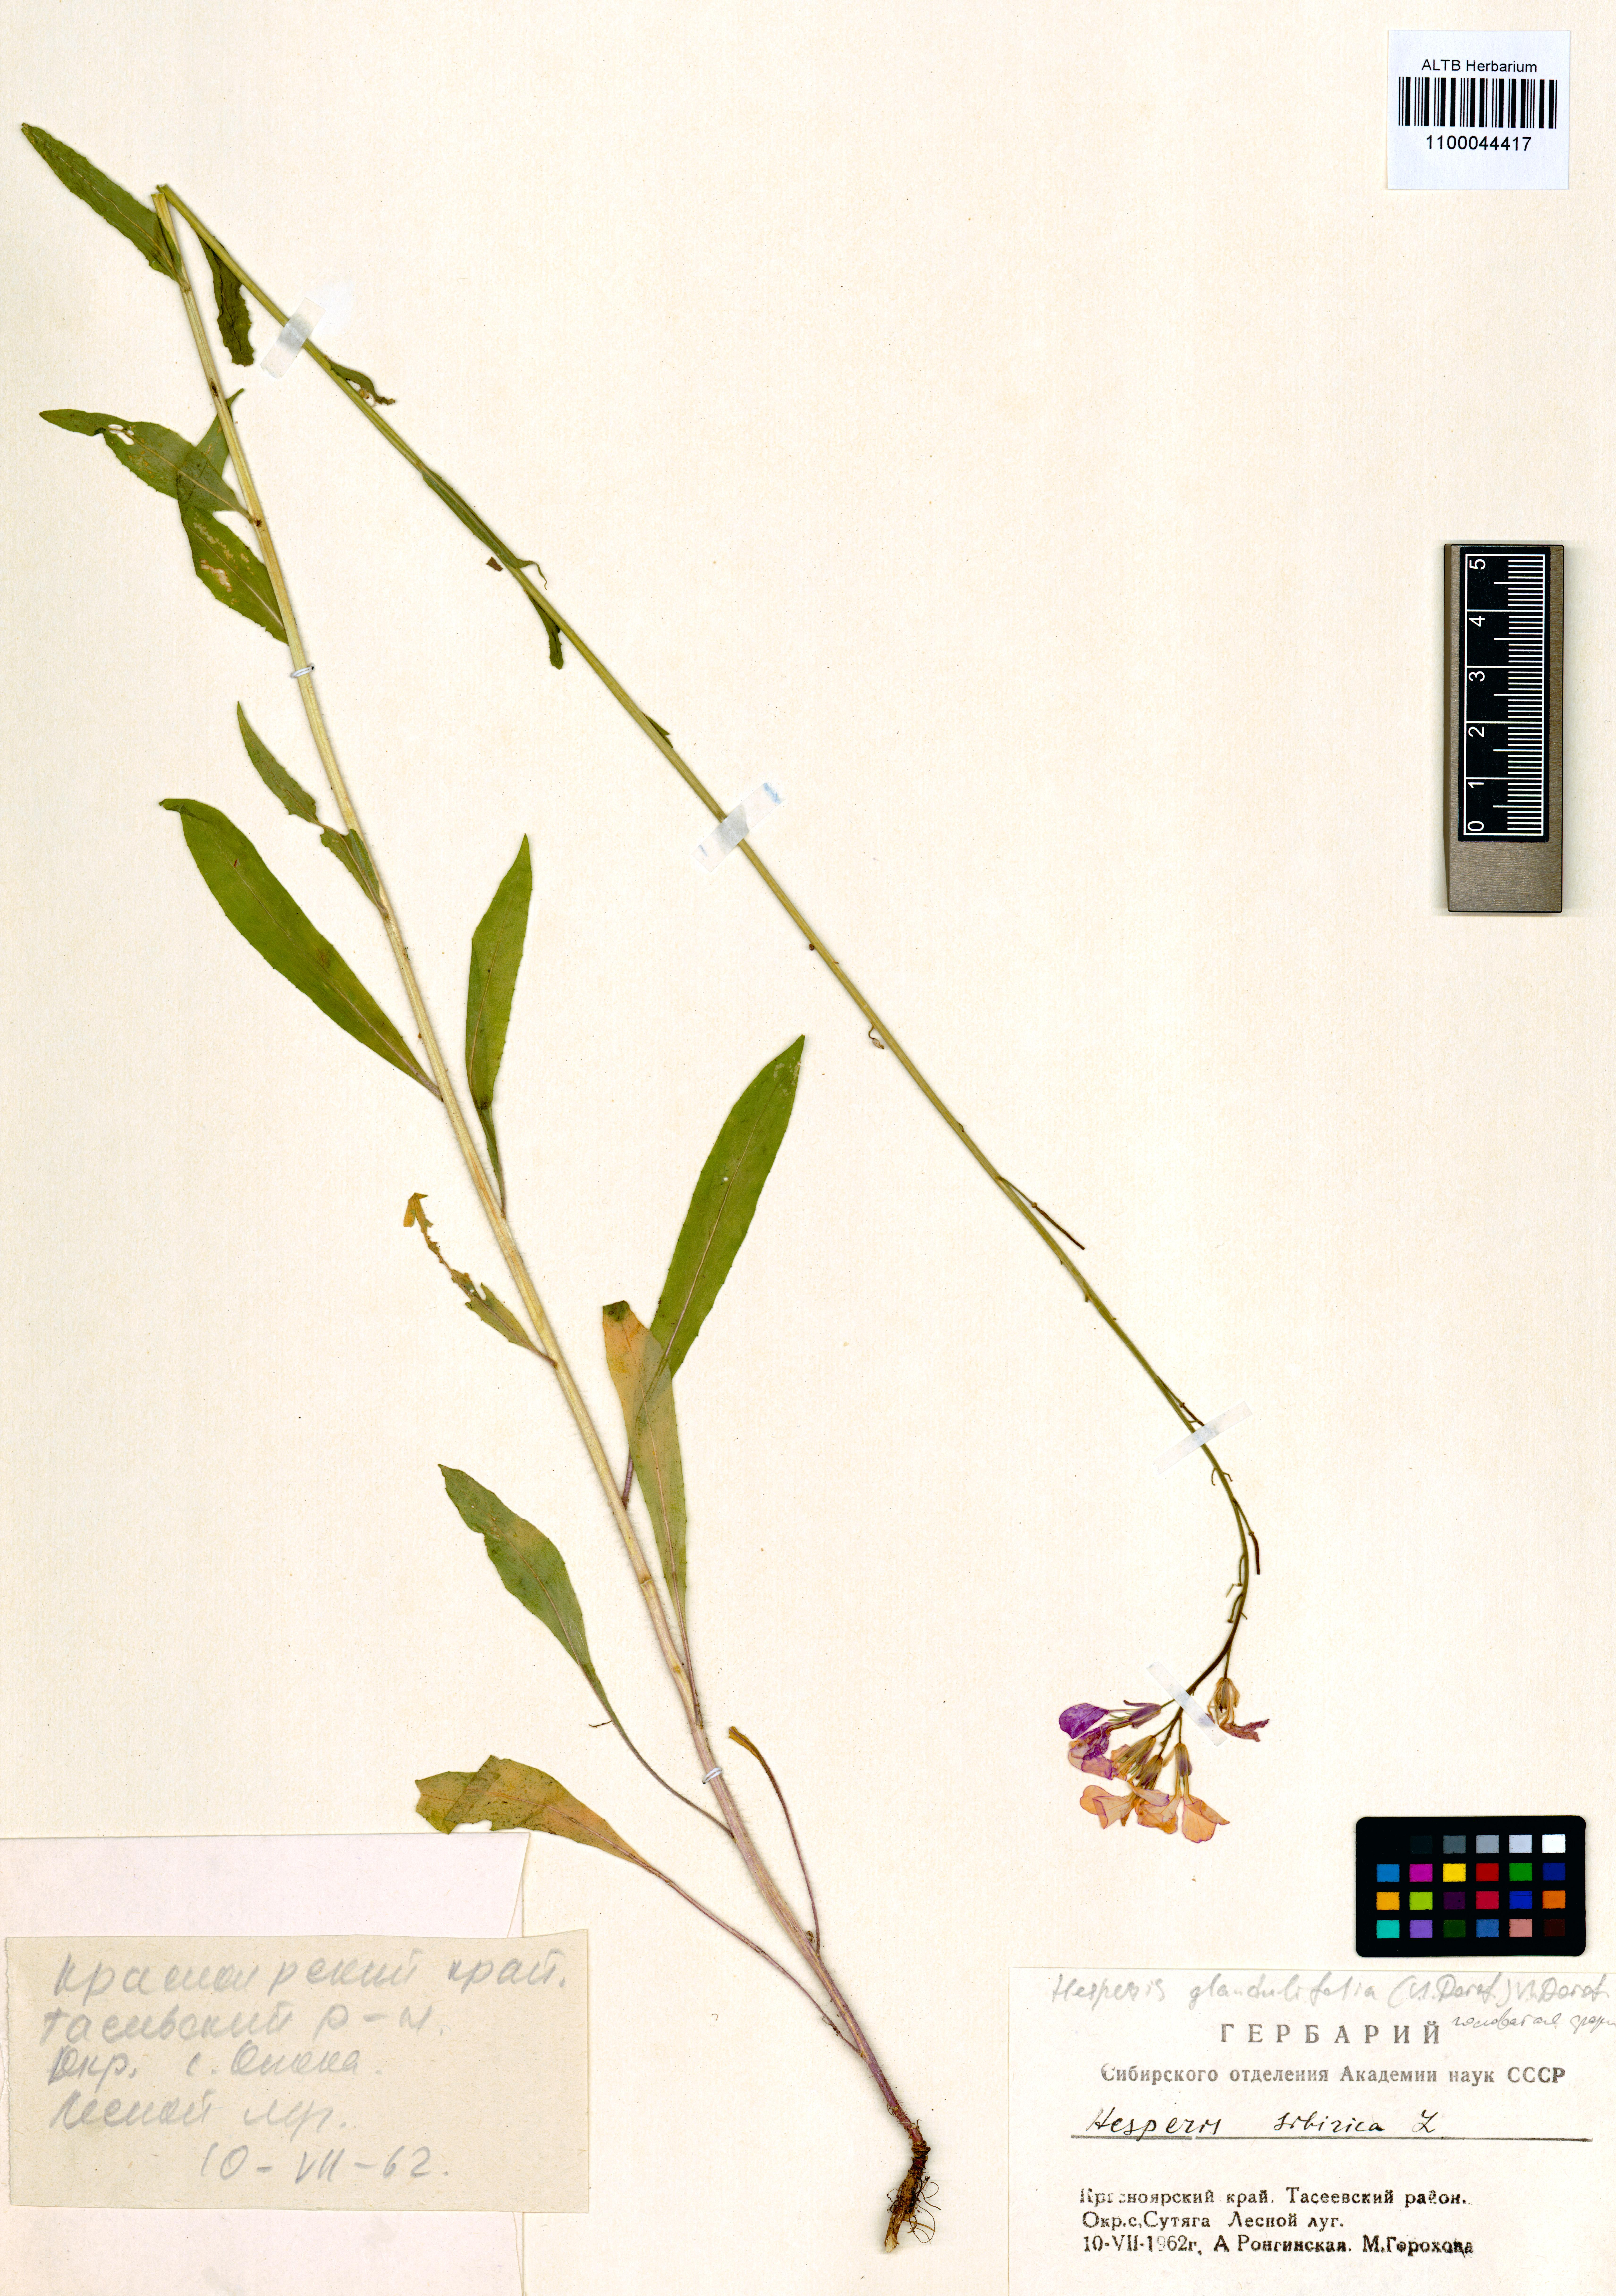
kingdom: Plantae
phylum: Tracheophyta
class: Magnoliopsida
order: Brassicales
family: Brassicaceae
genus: Hesperis
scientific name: Hesperis sibirica
